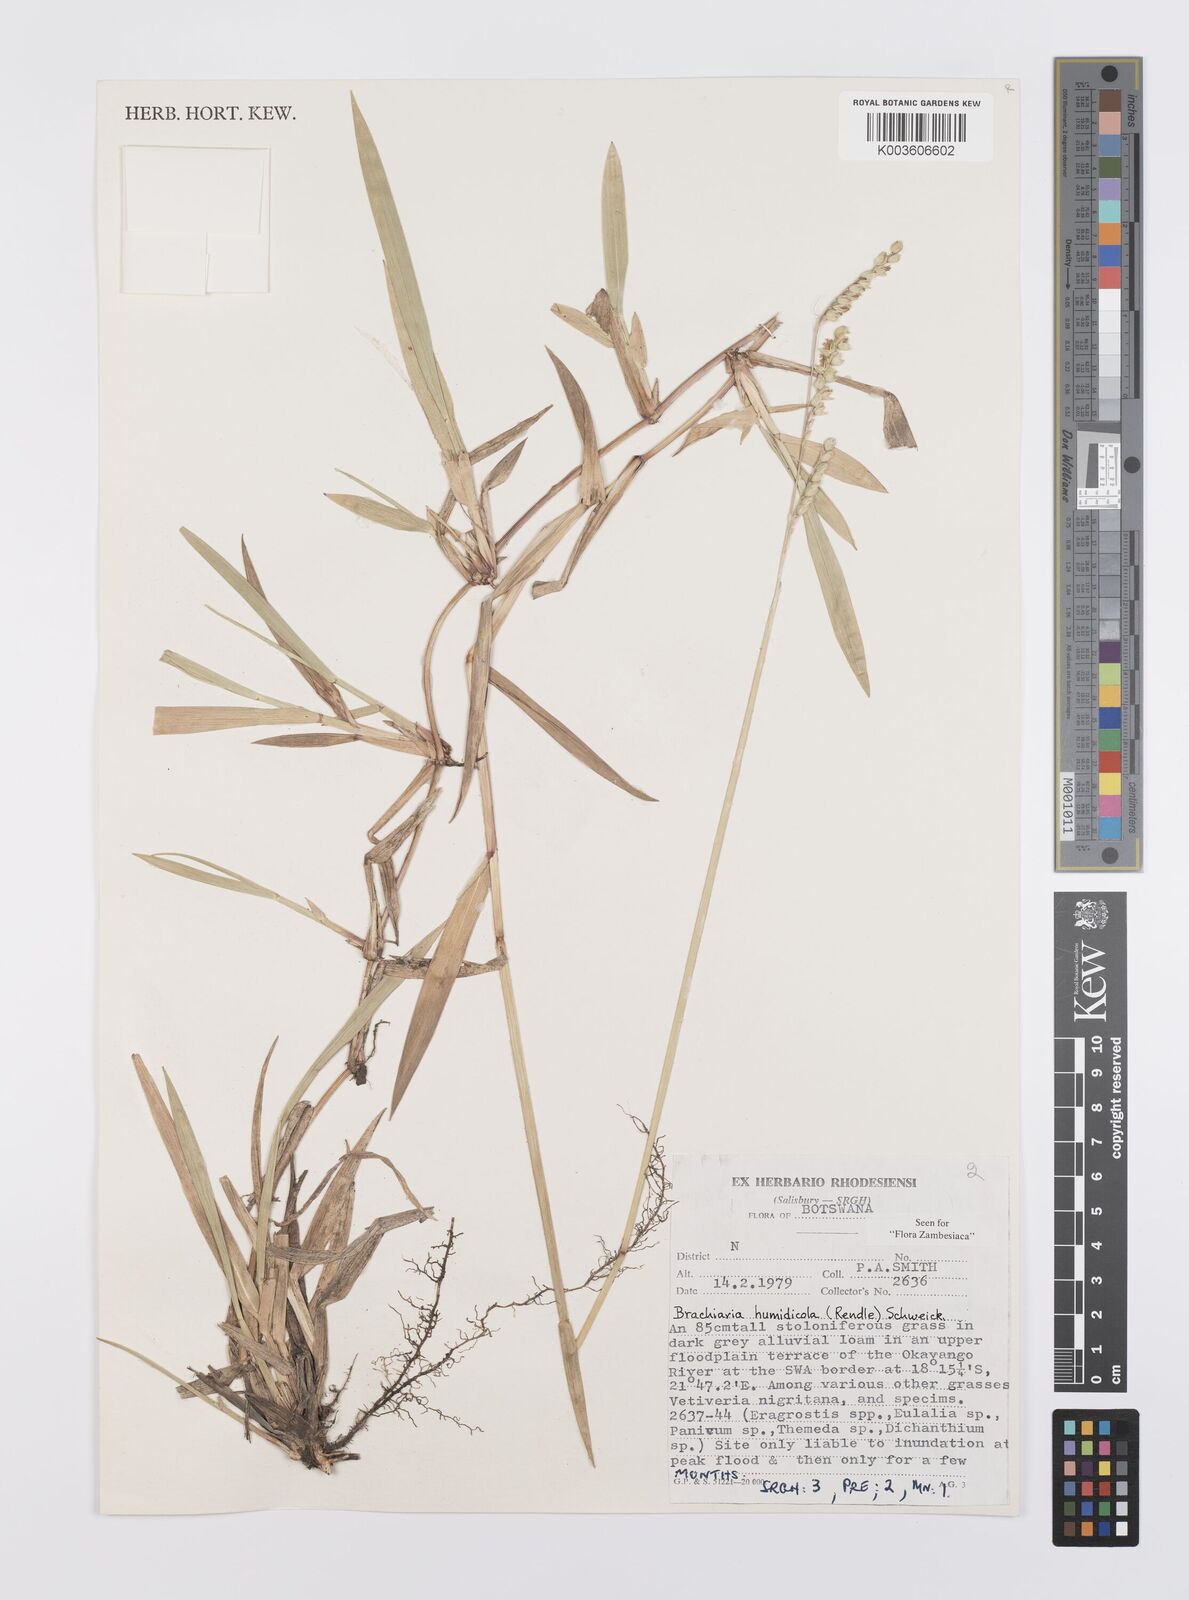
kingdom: Plantae
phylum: Tracheophyta
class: Liliopsida
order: Poales
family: Poaceae
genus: Urochloa
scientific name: Urochloa dictyoneura
